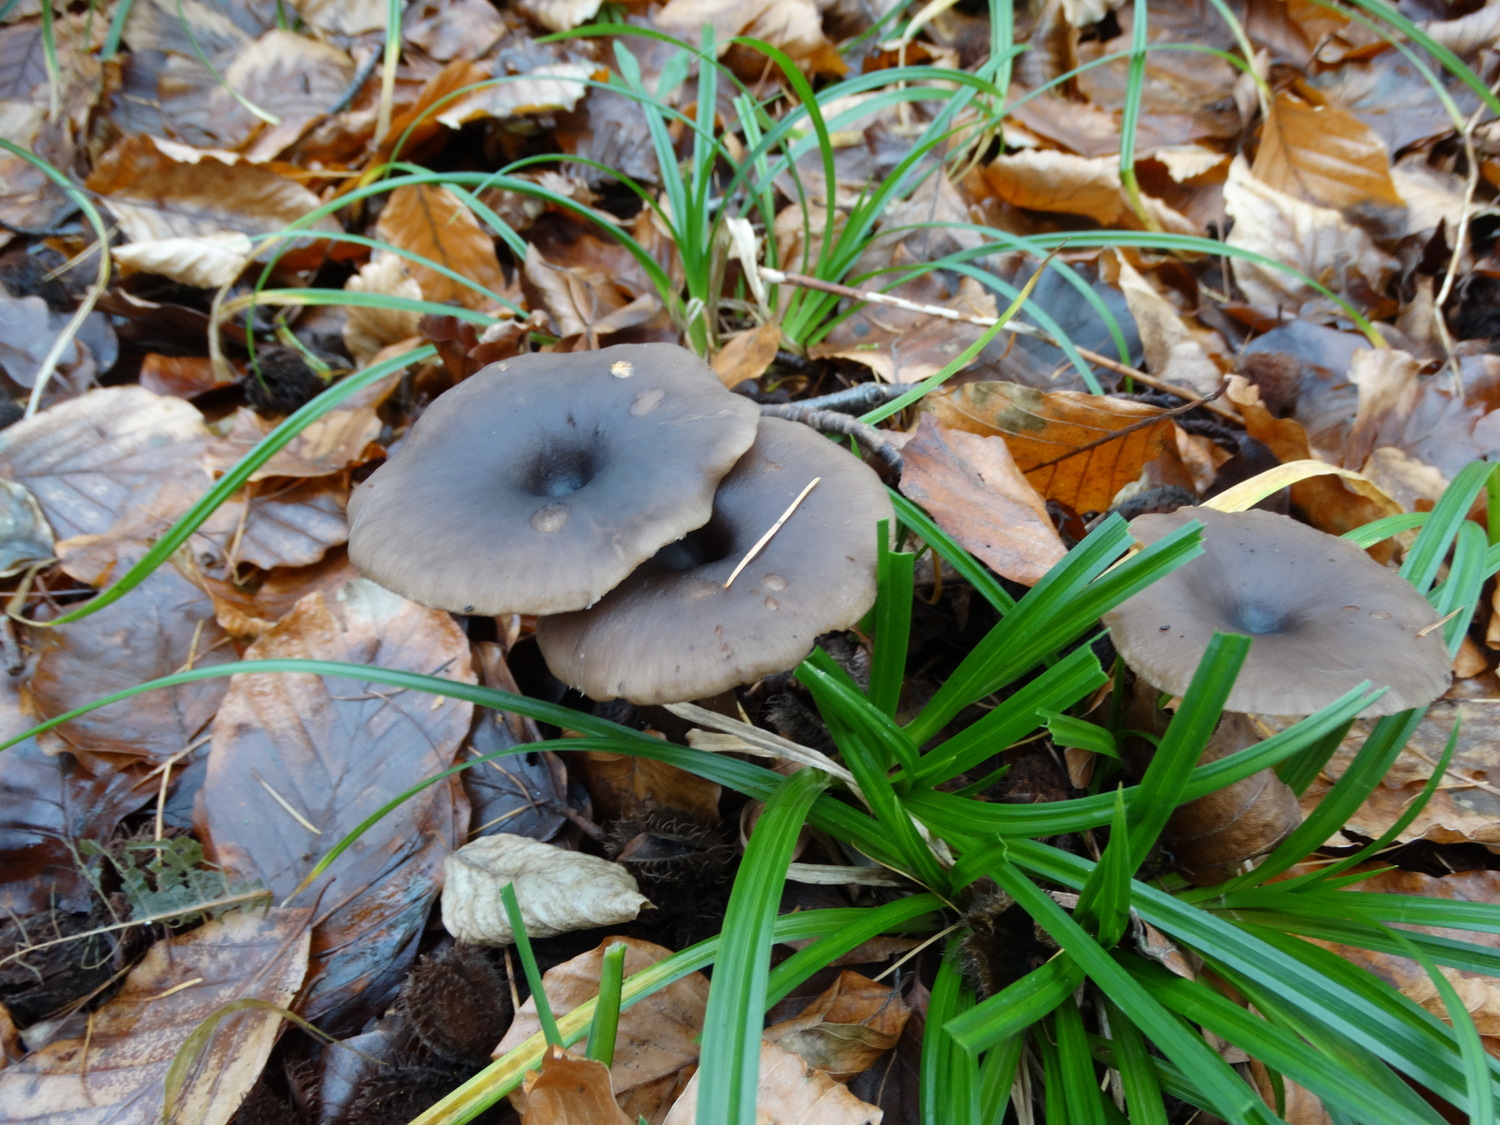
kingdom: Fungi
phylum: Basidiomycota
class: Agaricomycetes
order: Agaricales
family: Pseudoclitocybaceae
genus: Pseudoclitocybe
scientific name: Pseudoclitocybe cyathiformis
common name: almindelig bægertragthat
